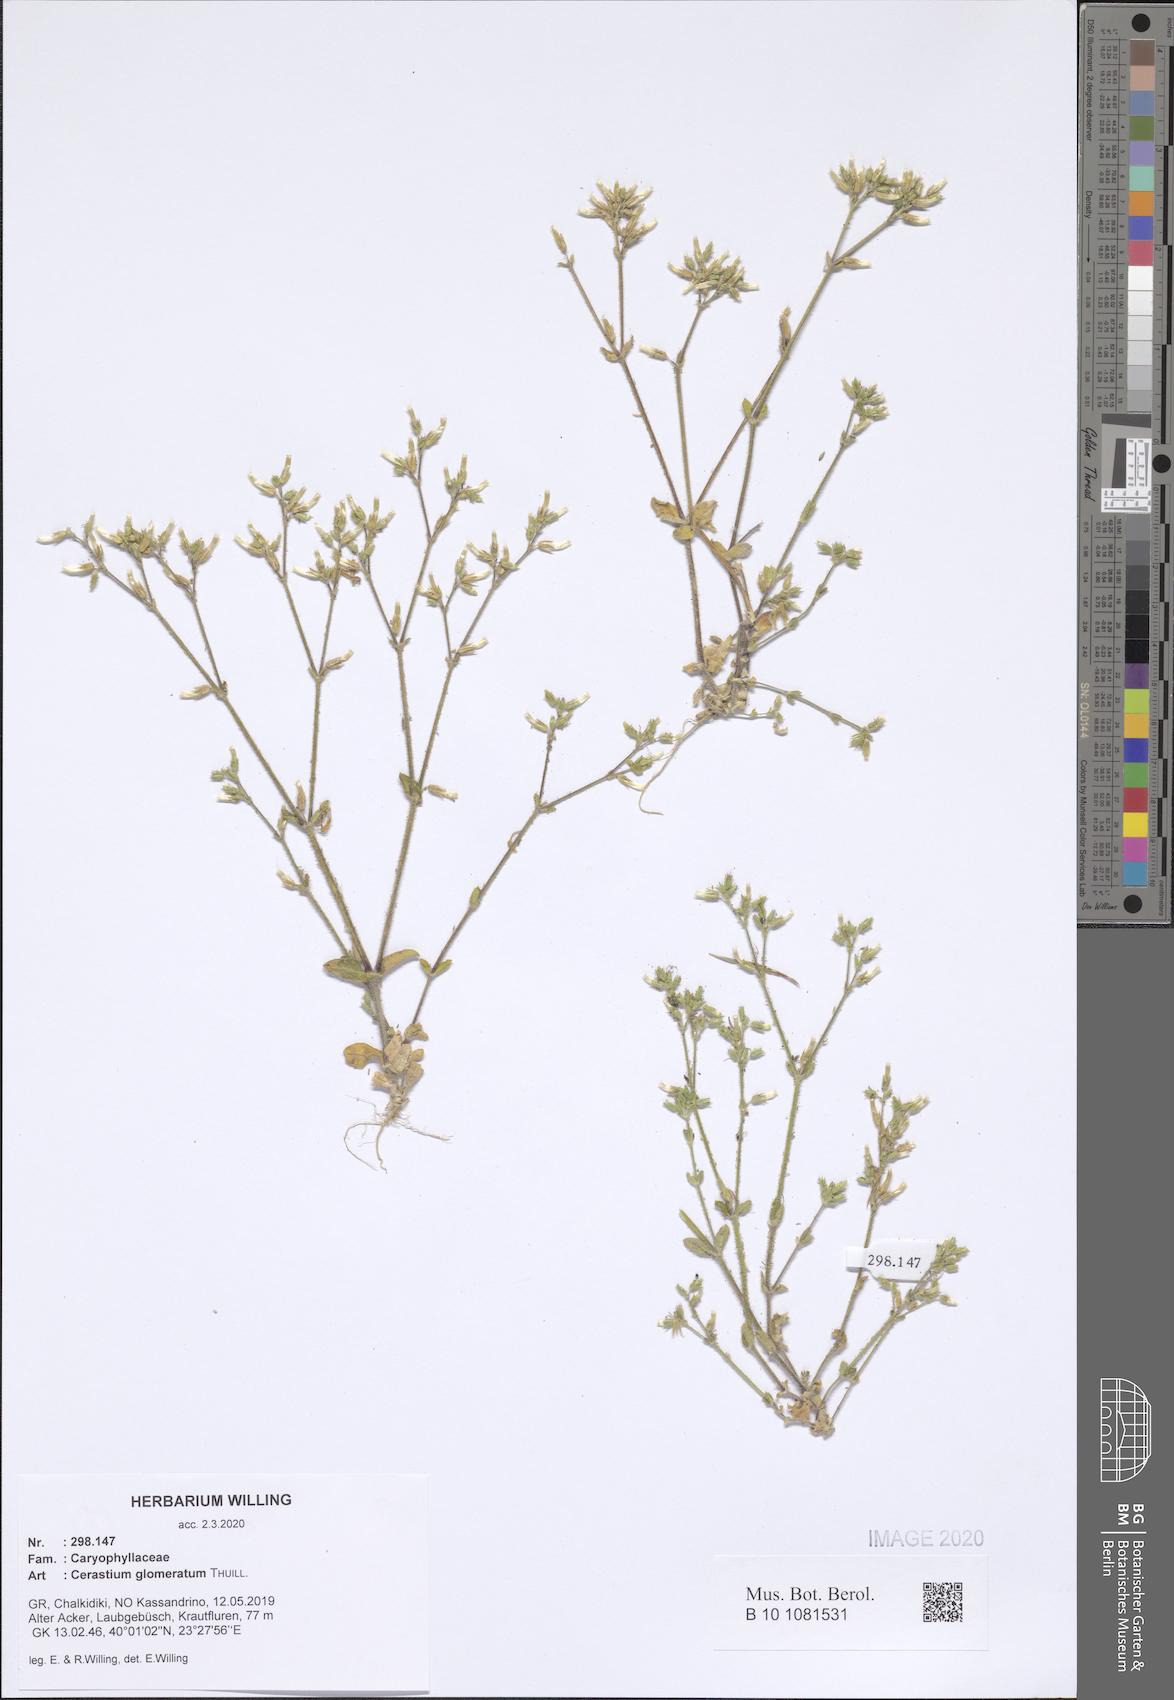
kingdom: Plantae
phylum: Tracheophyta
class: Magnoliopsida
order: Caryophyllales
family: Caryophyllaceae
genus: Cerastium
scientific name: Cerastium glomeratum
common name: Sticky chickweed
